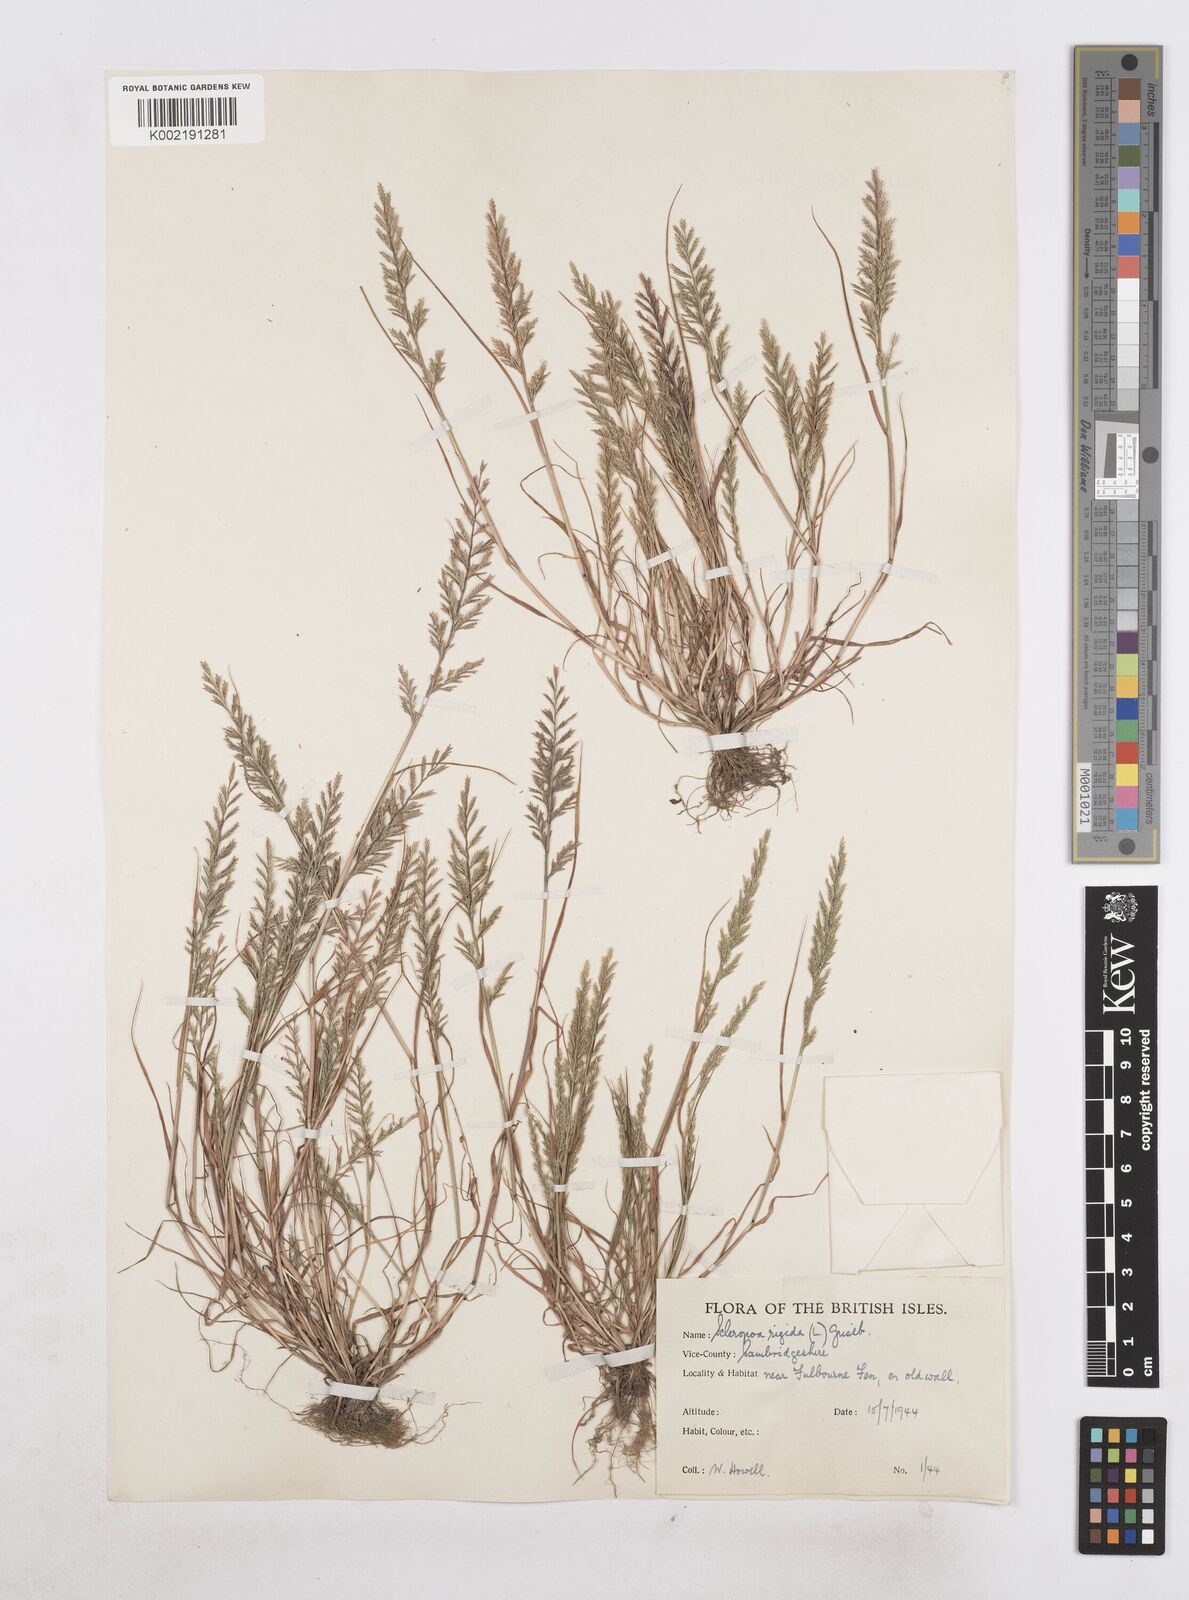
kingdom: Plantae
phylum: Tracheophyta
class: Liliopsida
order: Poales
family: Poaceae
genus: Catapodium
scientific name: Catapodium rigidum
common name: Fern-grass
